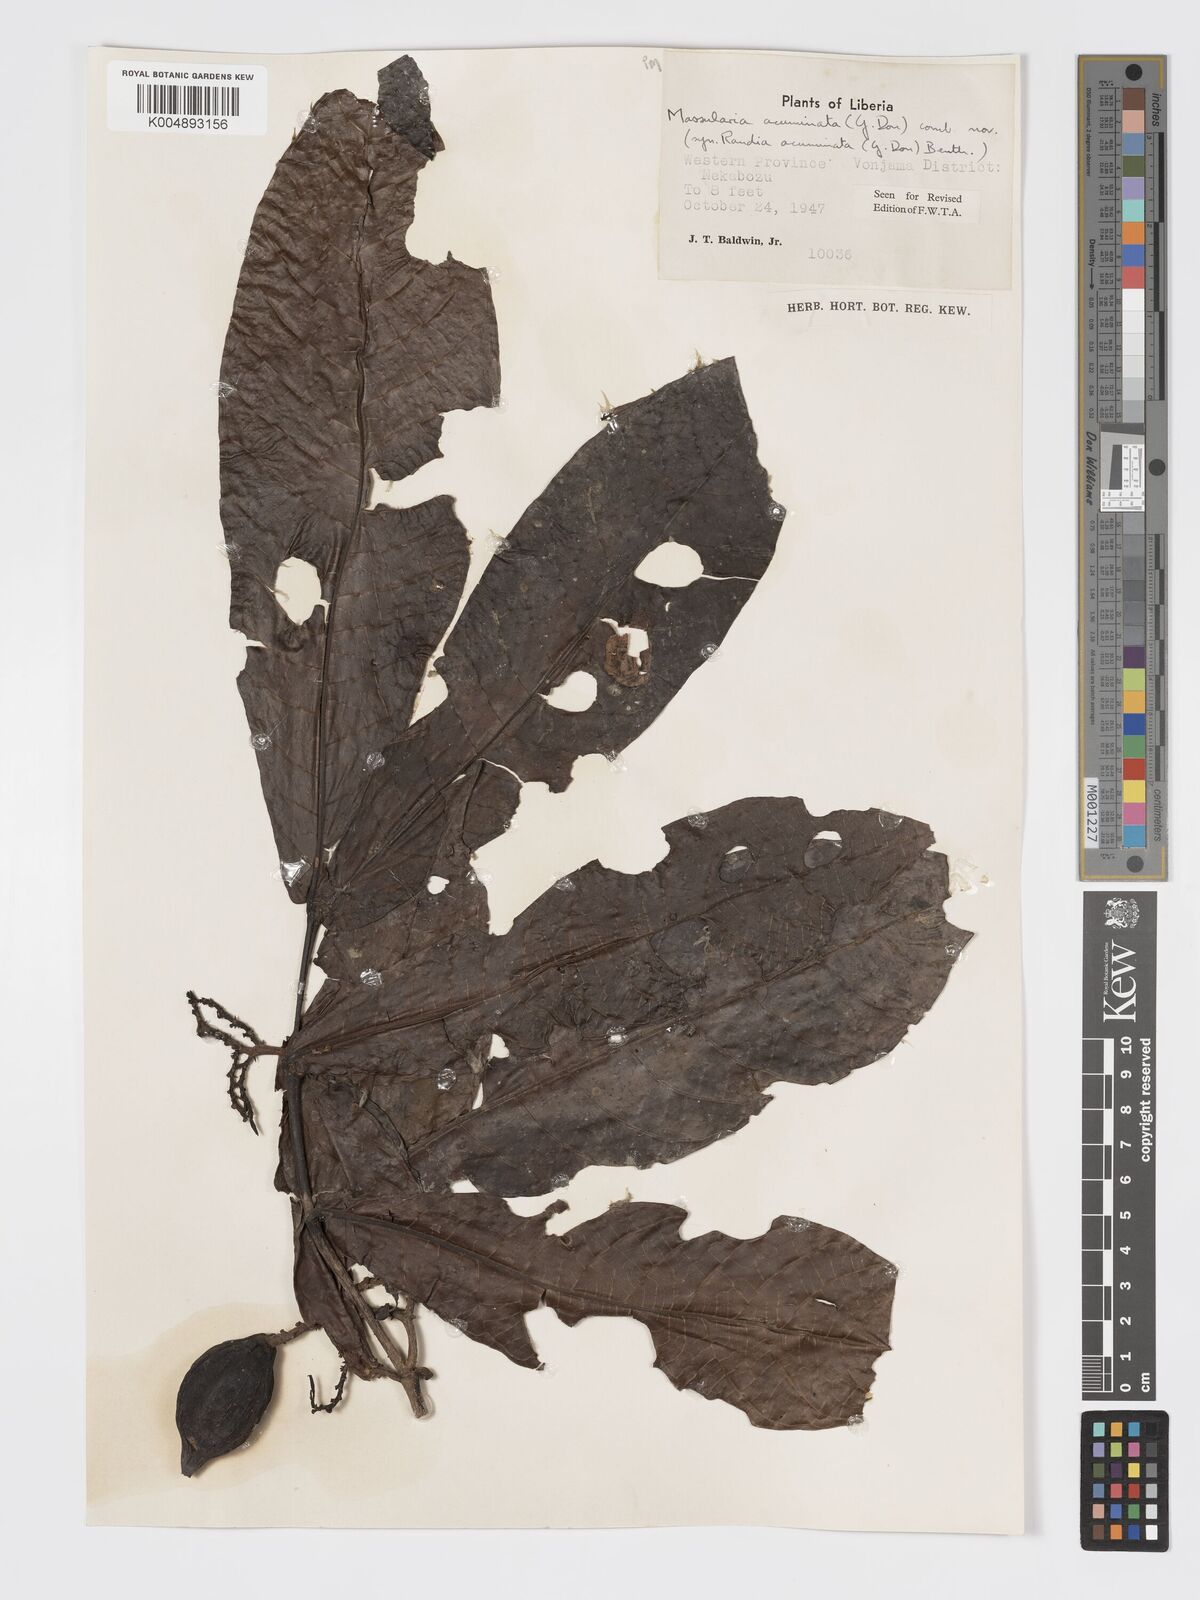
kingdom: Plantae
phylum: Tracheophyta
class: Magnoliopsida
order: Gentianales
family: Rubiaceae
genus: Massularia
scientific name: Massularia acuminata
